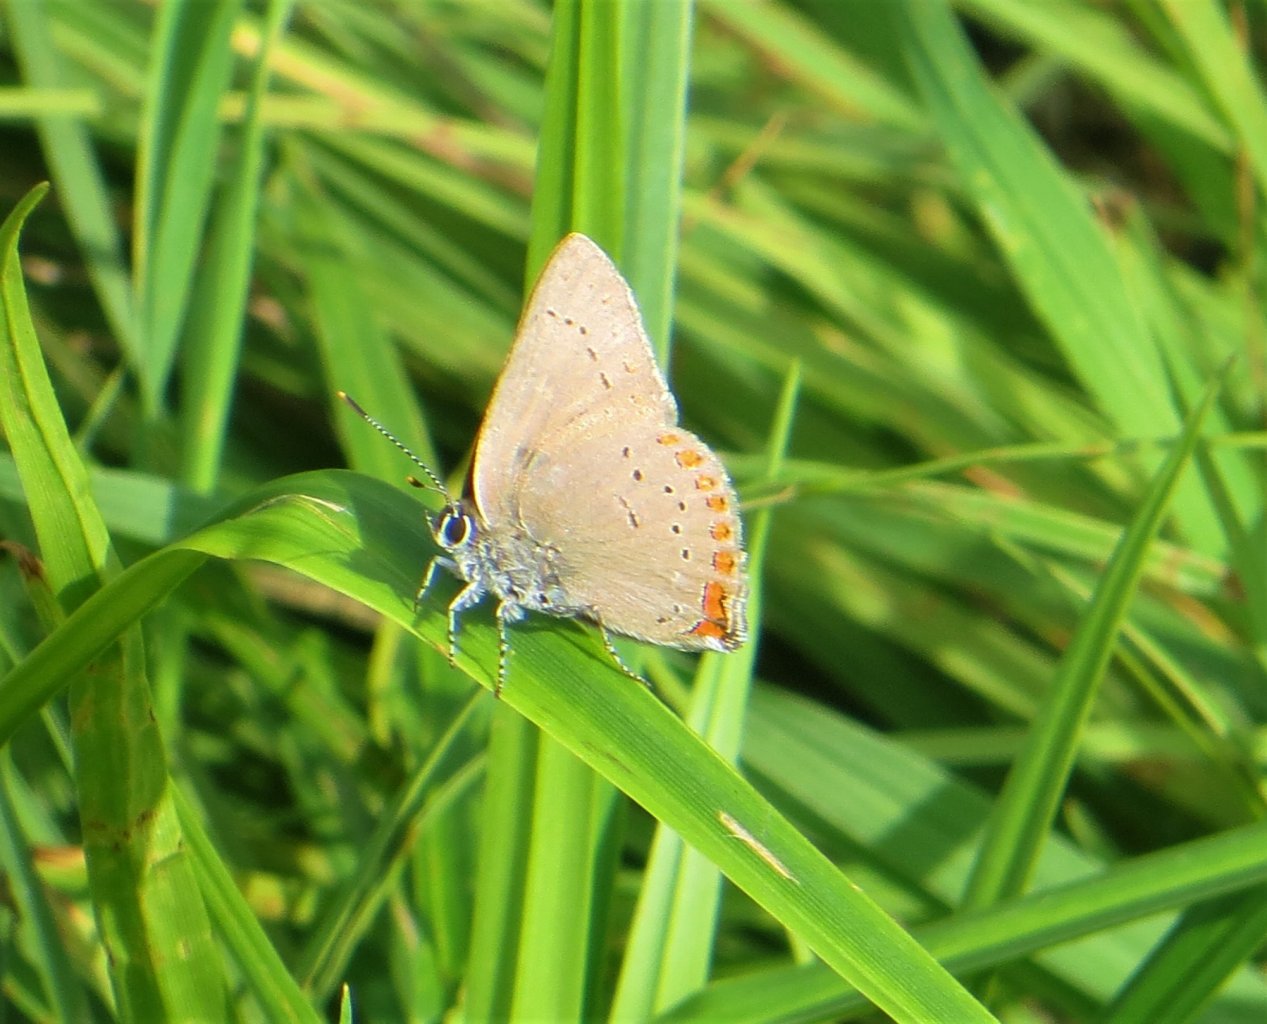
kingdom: Animalia
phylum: Arthropoda
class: Insecta
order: Lepidoptera
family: Lycaenidae
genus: Harkenclenus
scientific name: Harkenclenus titus
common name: Coral Hairstreak
